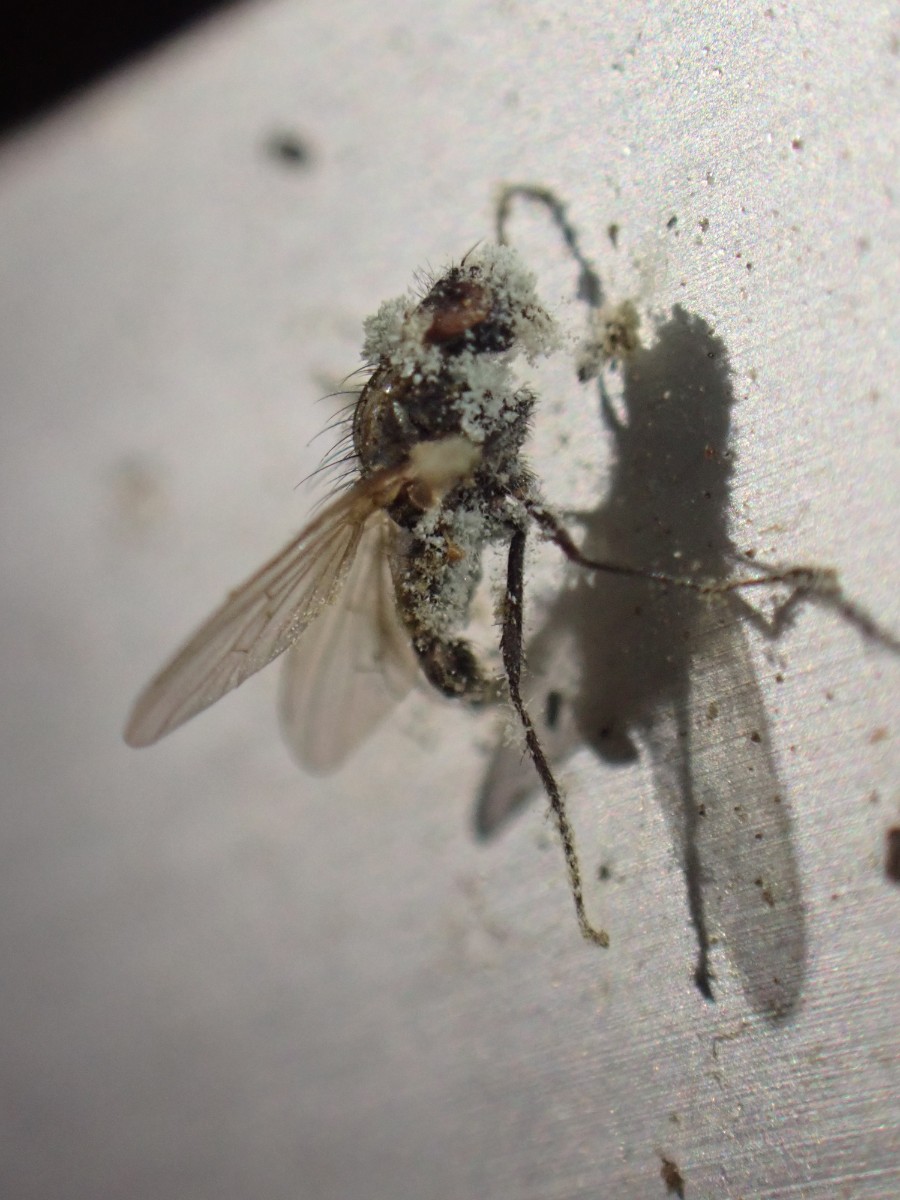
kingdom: Fungi
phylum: Ascomycota
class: Eurotiomycetes
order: Eurotiales
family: Aspergillaceae
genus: Penicillium
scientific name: Penicillium
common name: penselskimmel
